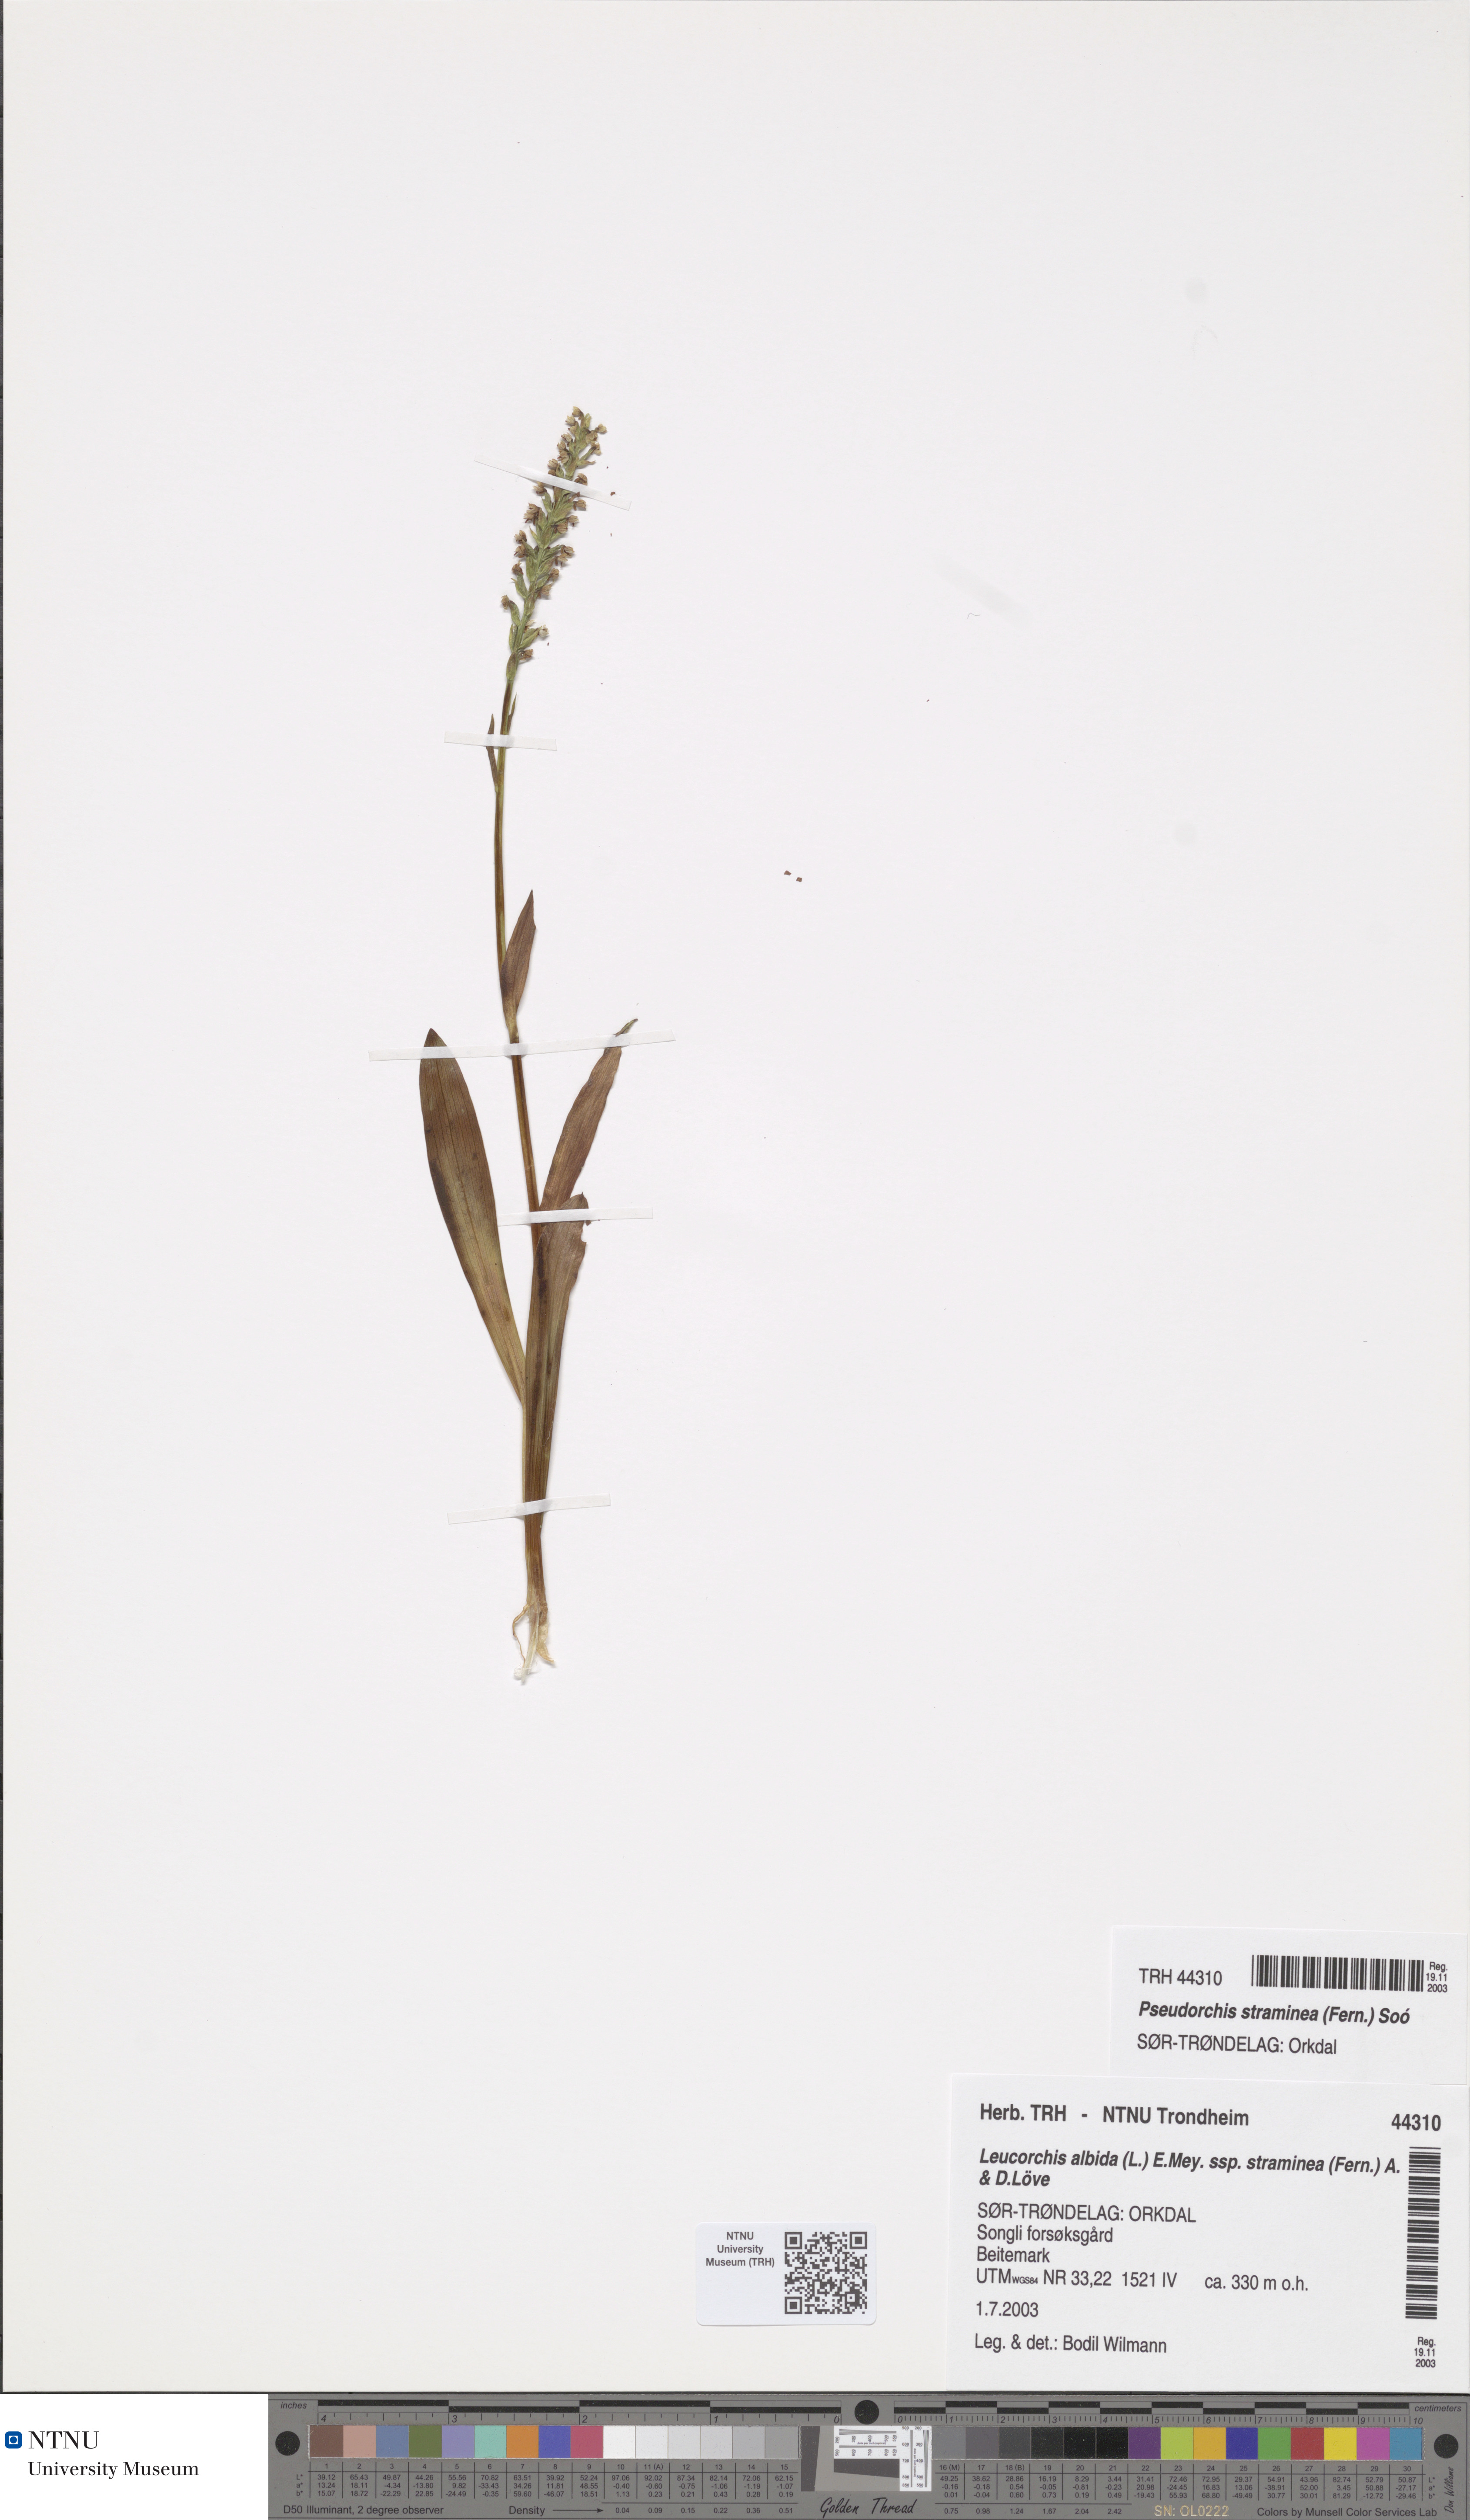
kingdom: Plantae
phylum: Tracheophyta
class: Liliopsida
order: Asparagales
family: Orchidaceae
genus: Pseudorchis
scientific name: Pseudorchis straminea
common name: Vanilla-scented bog orchid
